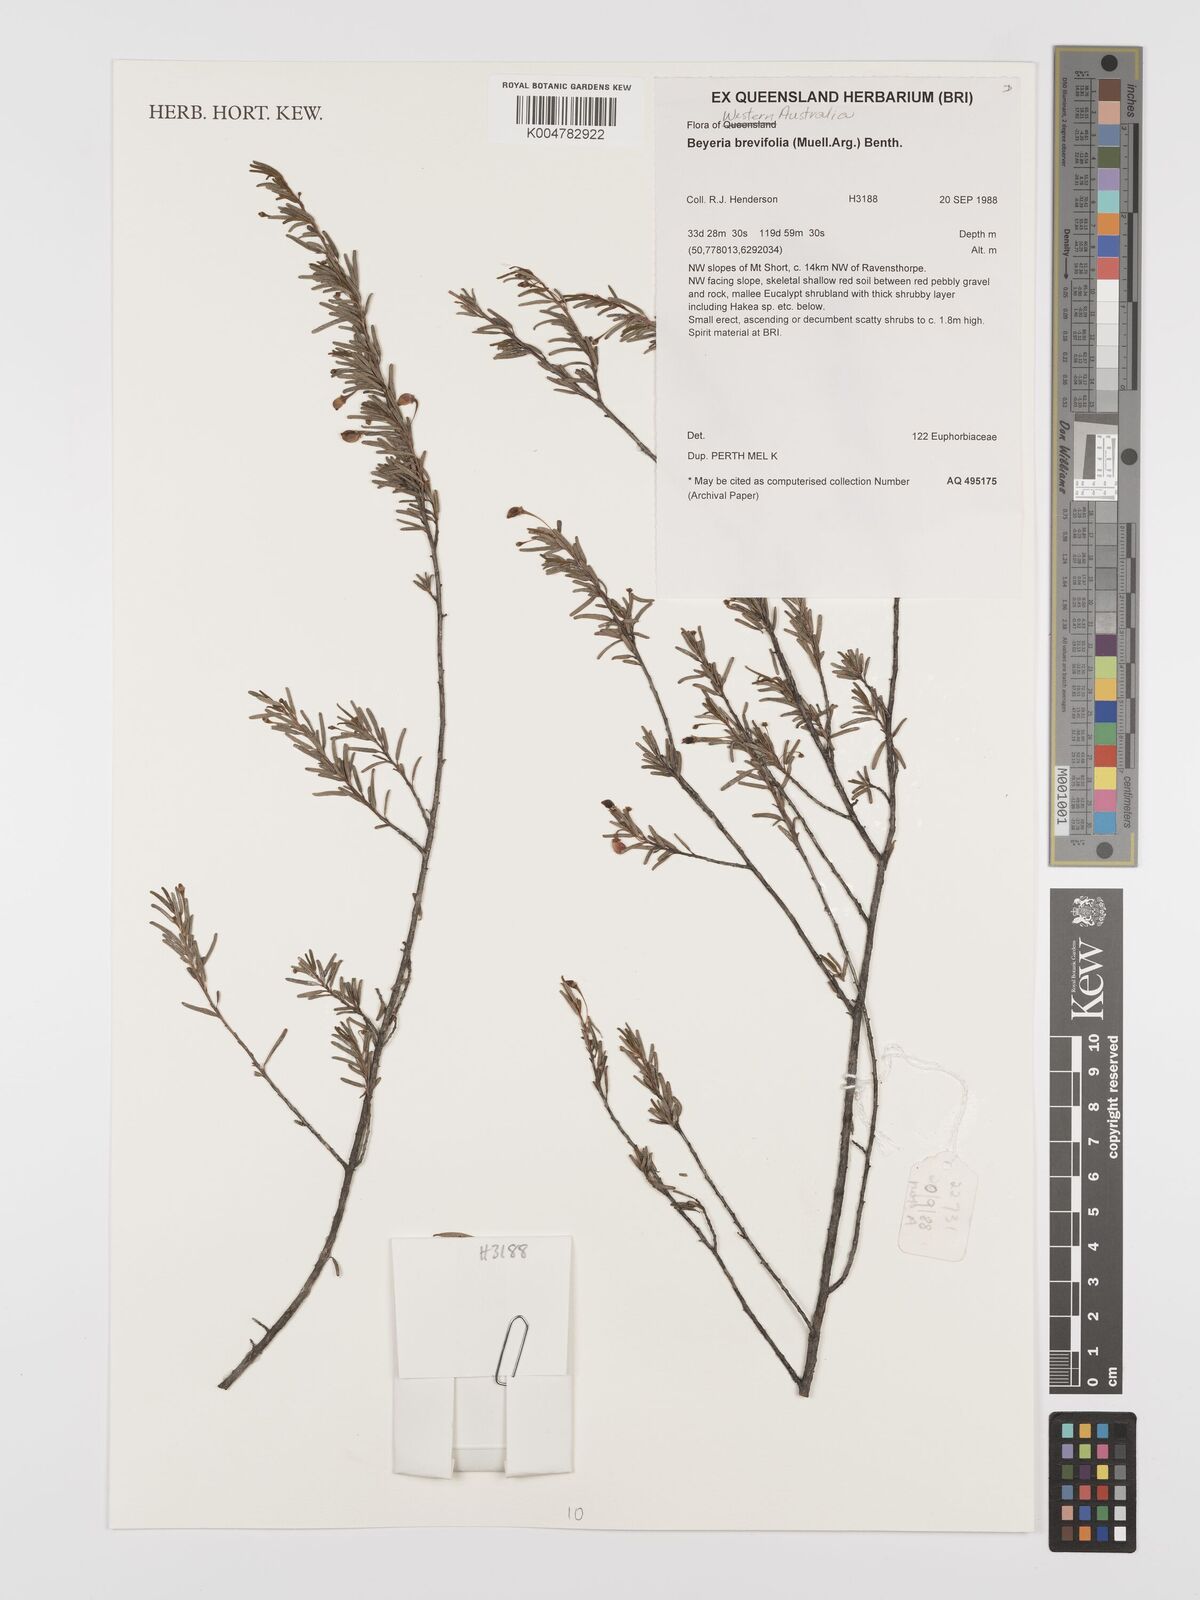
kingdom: Plantae
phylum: Tracheophyta
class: Magnoliopsida
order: Malpighiales
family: Euphorbiaceae
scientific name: Euphorbiaceae
